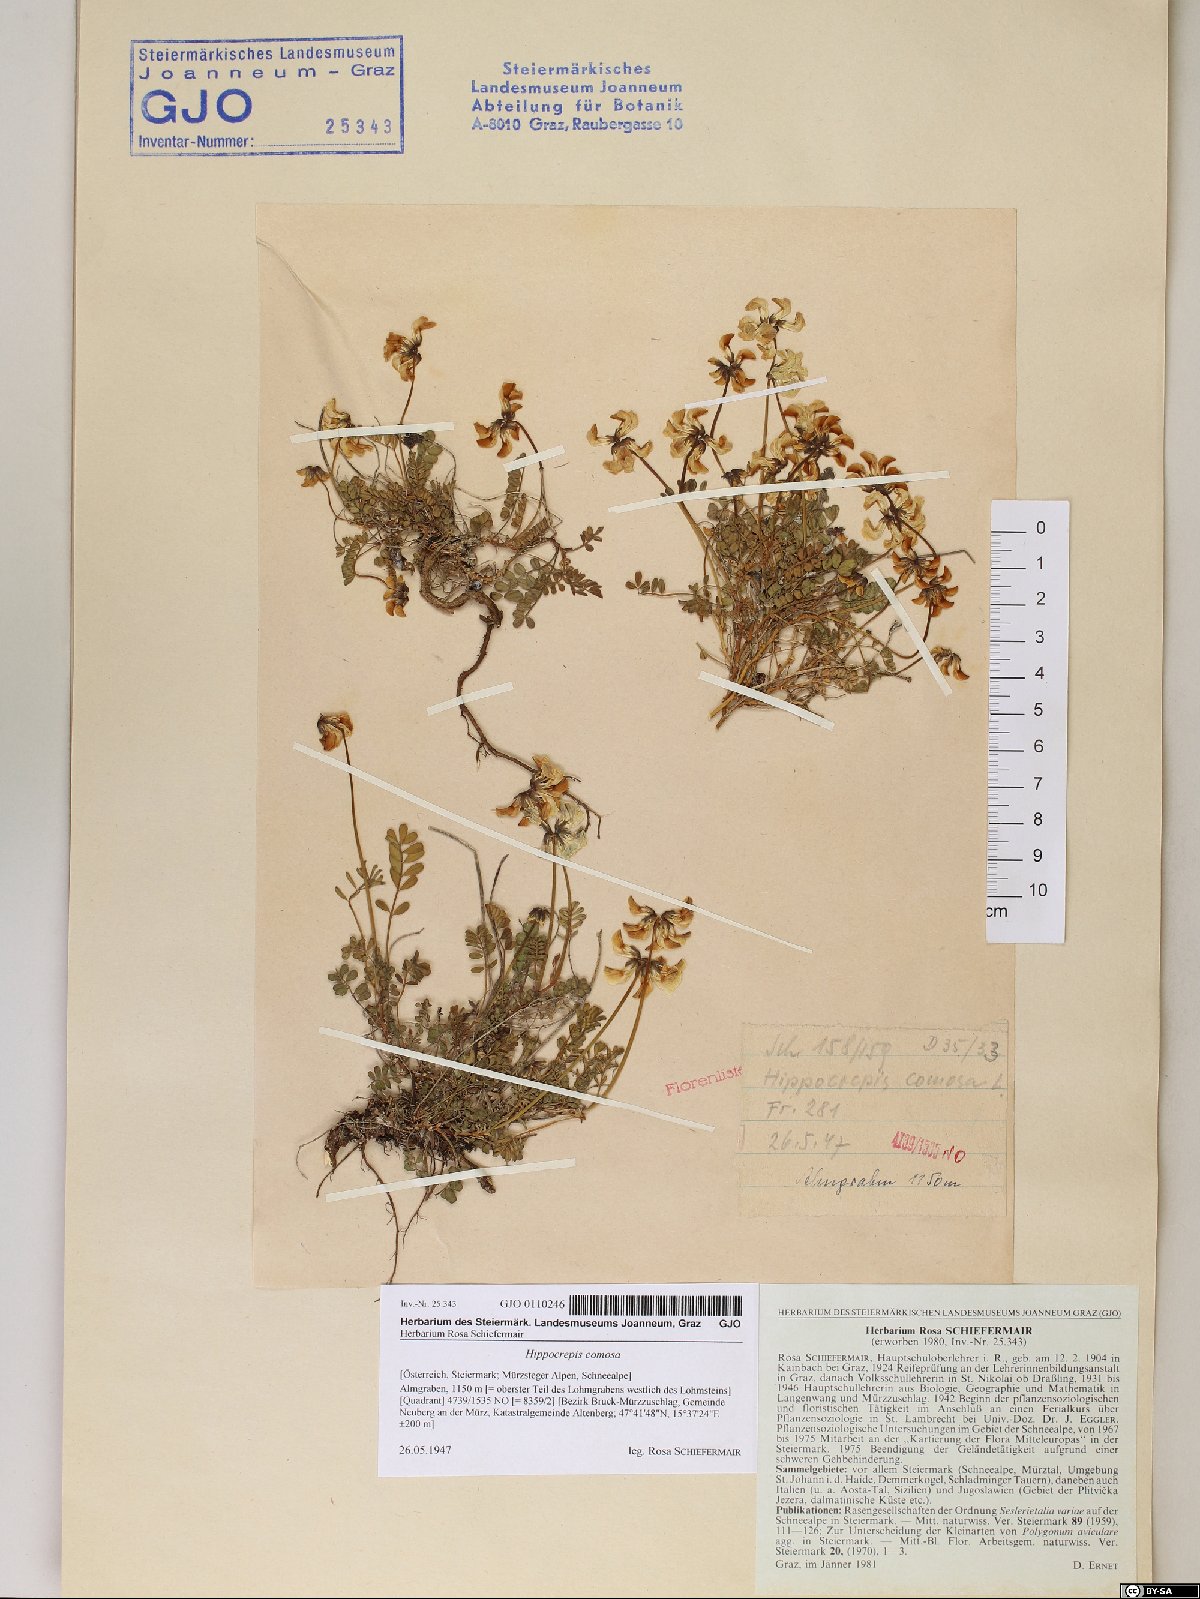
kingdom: Plantae
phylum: Tracheophyta
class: Magnoliopsida
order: Fabales
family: Fabaceae
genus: Hippocrepis
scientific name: Hippocrepis comosa
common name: Horseshoe vetch
